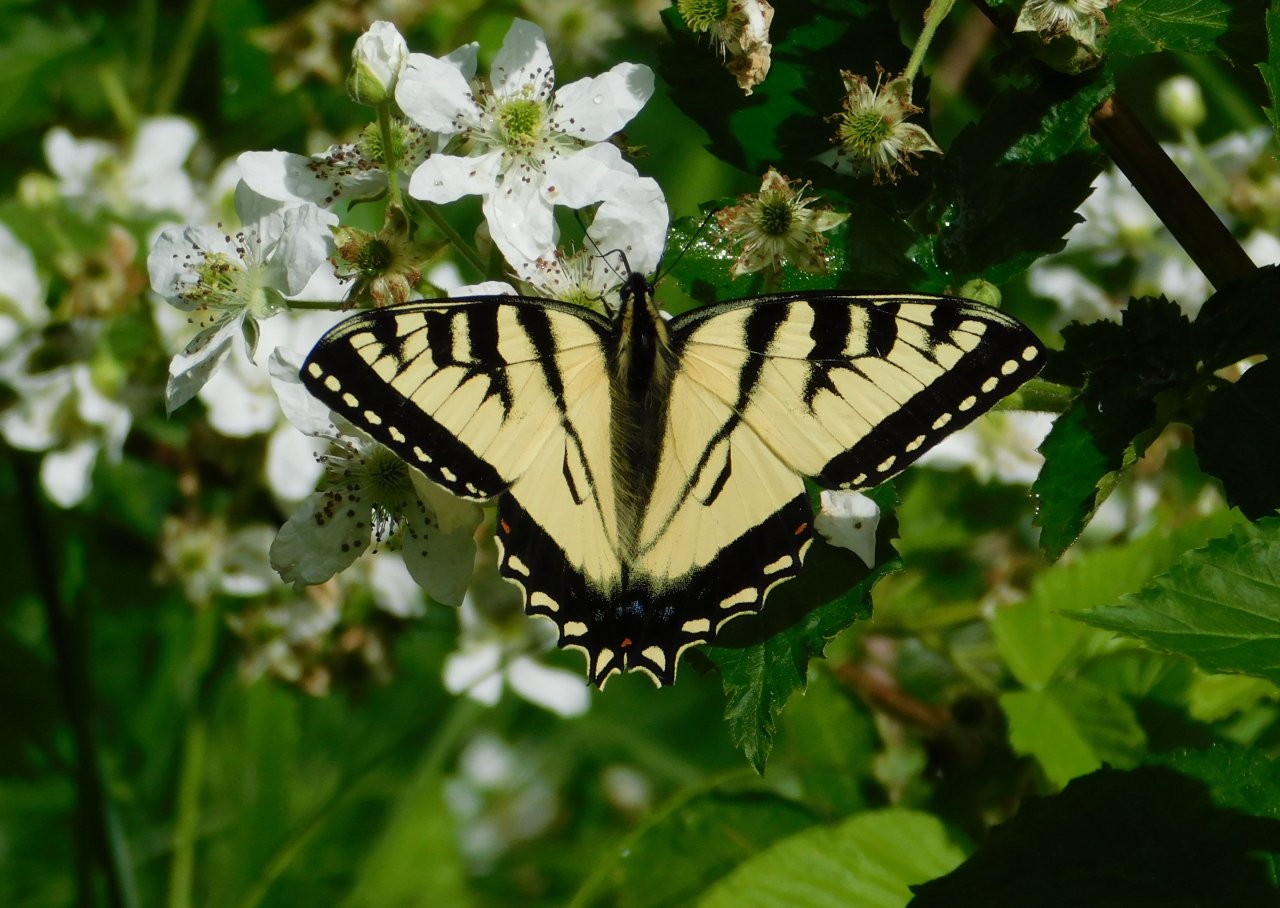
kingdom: Animalia
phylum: Arthropoda
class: Insecta
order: Lepidoptera
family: Papilionidae
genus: Pterourus
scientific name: Pterourus canadensis
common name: Canadian Tiger Swallowtail
